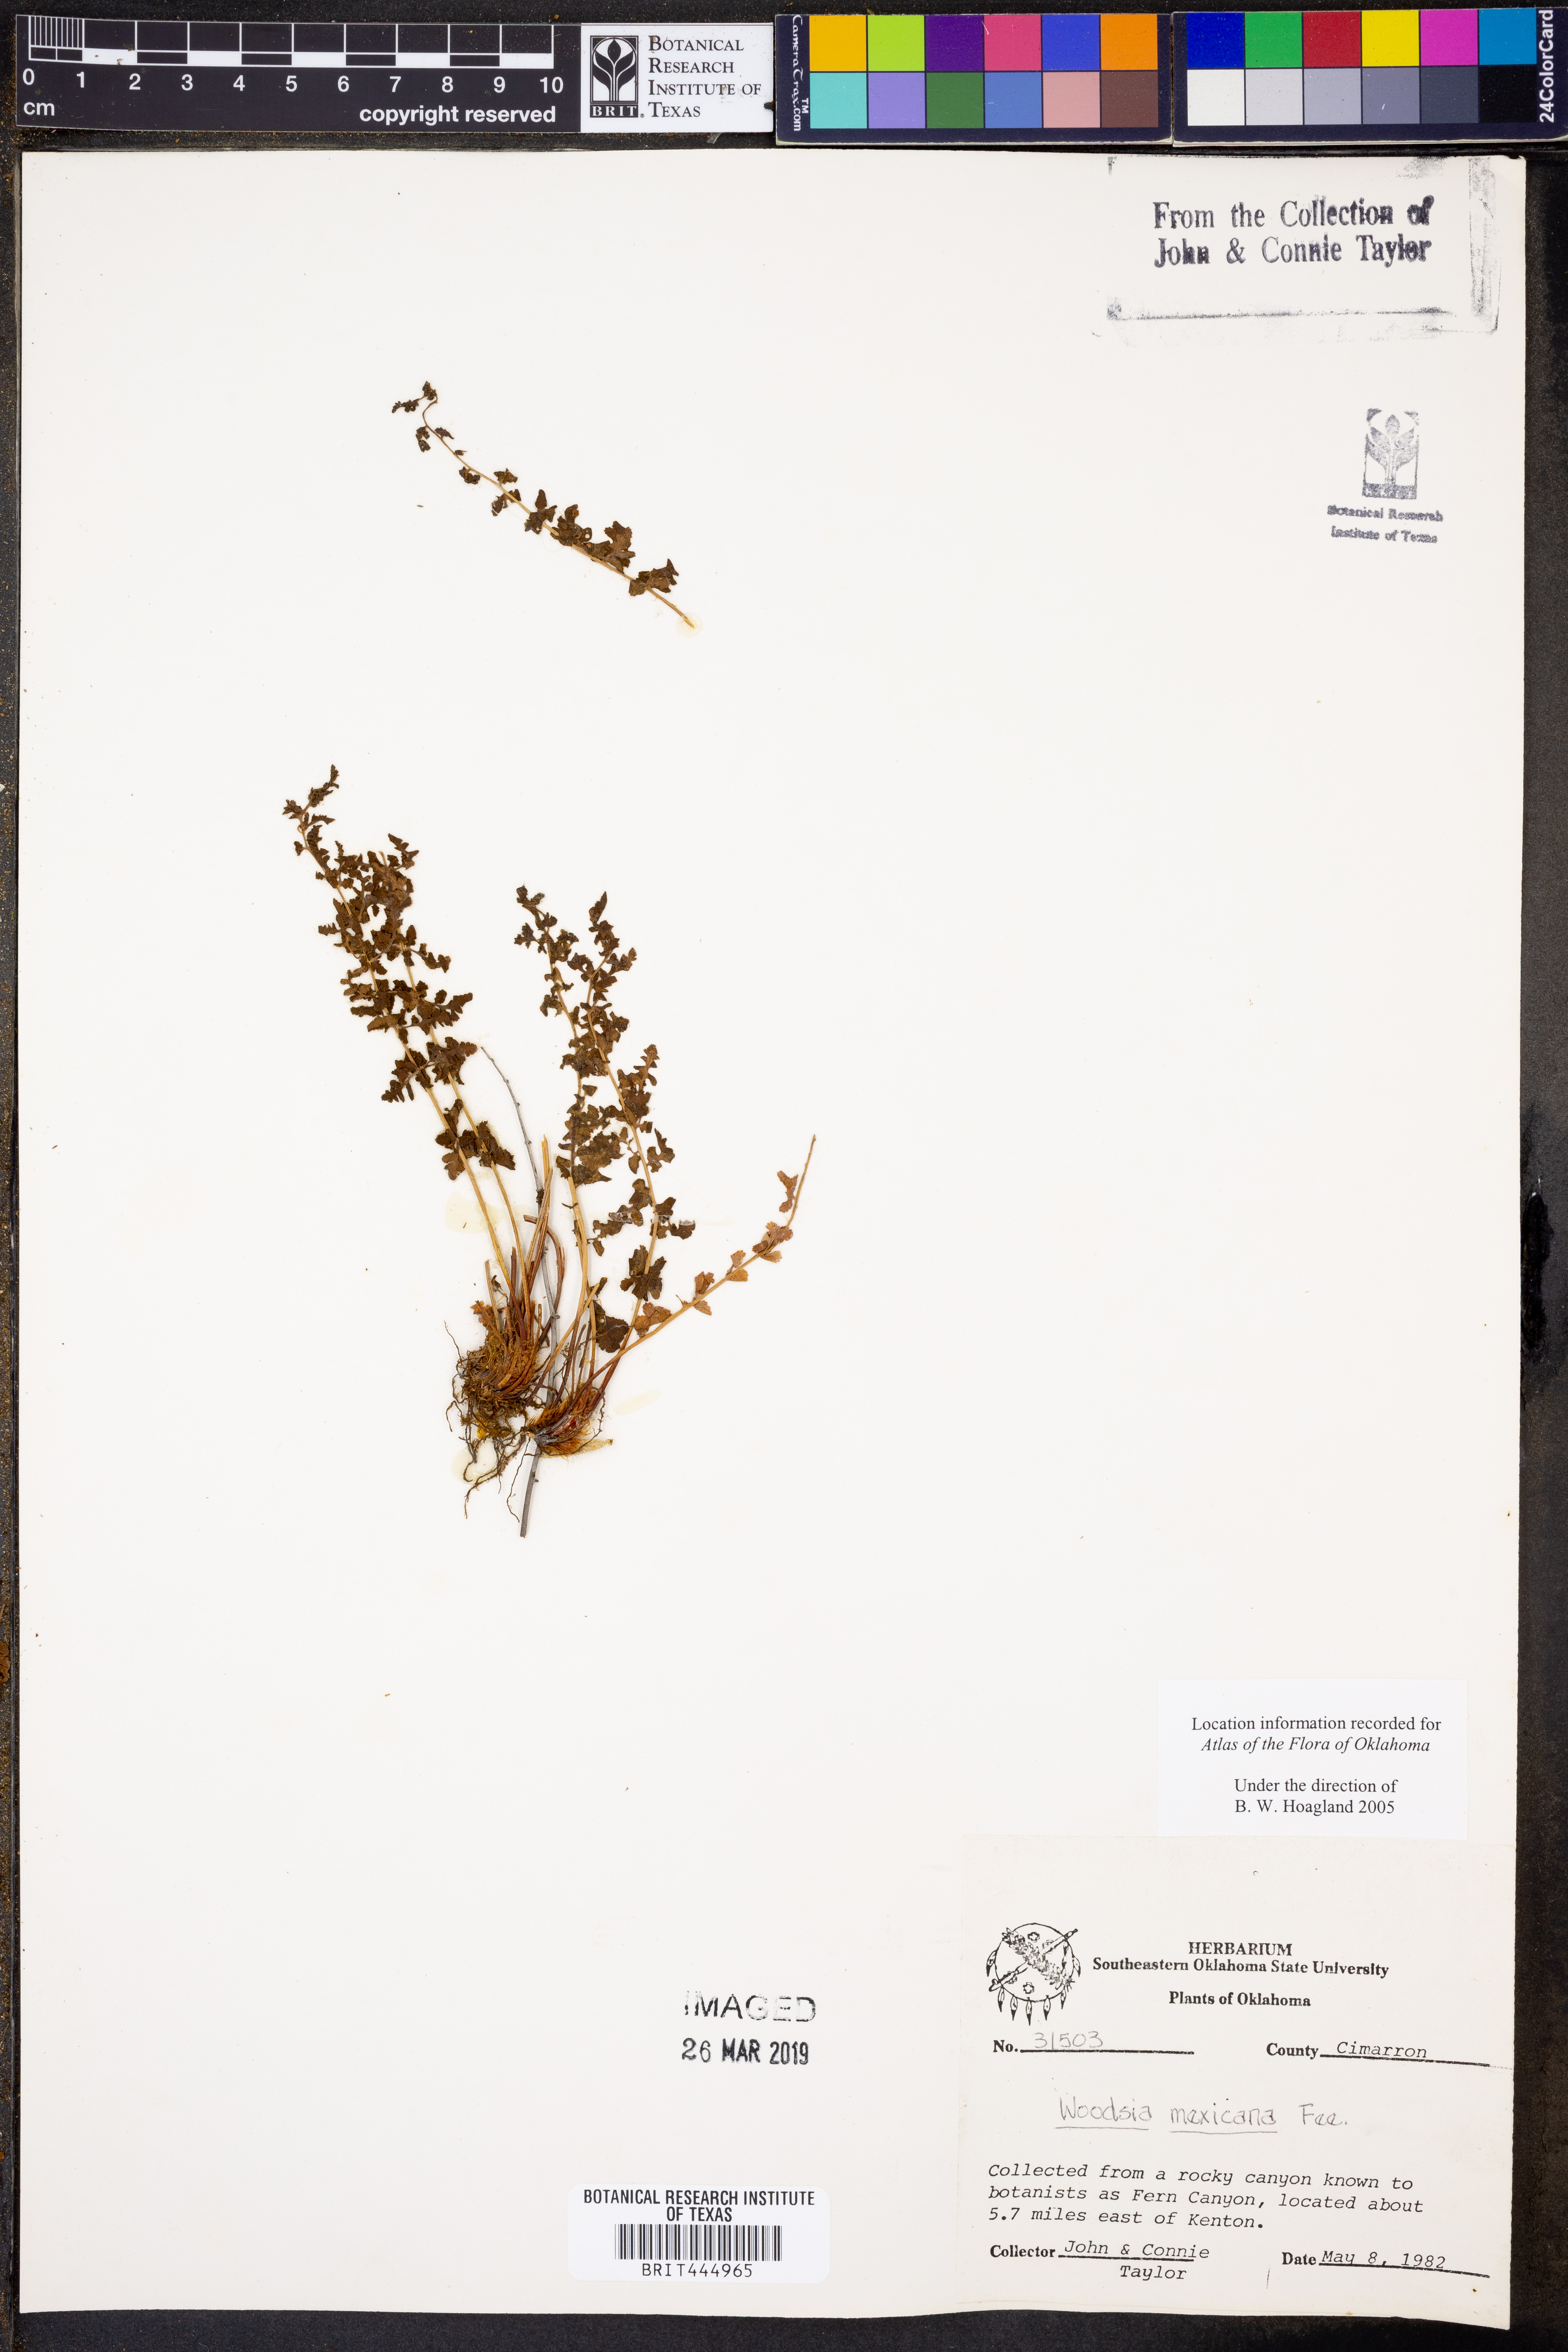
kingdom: Plantae
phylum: Tracheophyta
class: Polypodiopsida
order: Polypodiales
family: Woodsiaceae
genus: Physematium
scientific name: Physematium mexicanum
